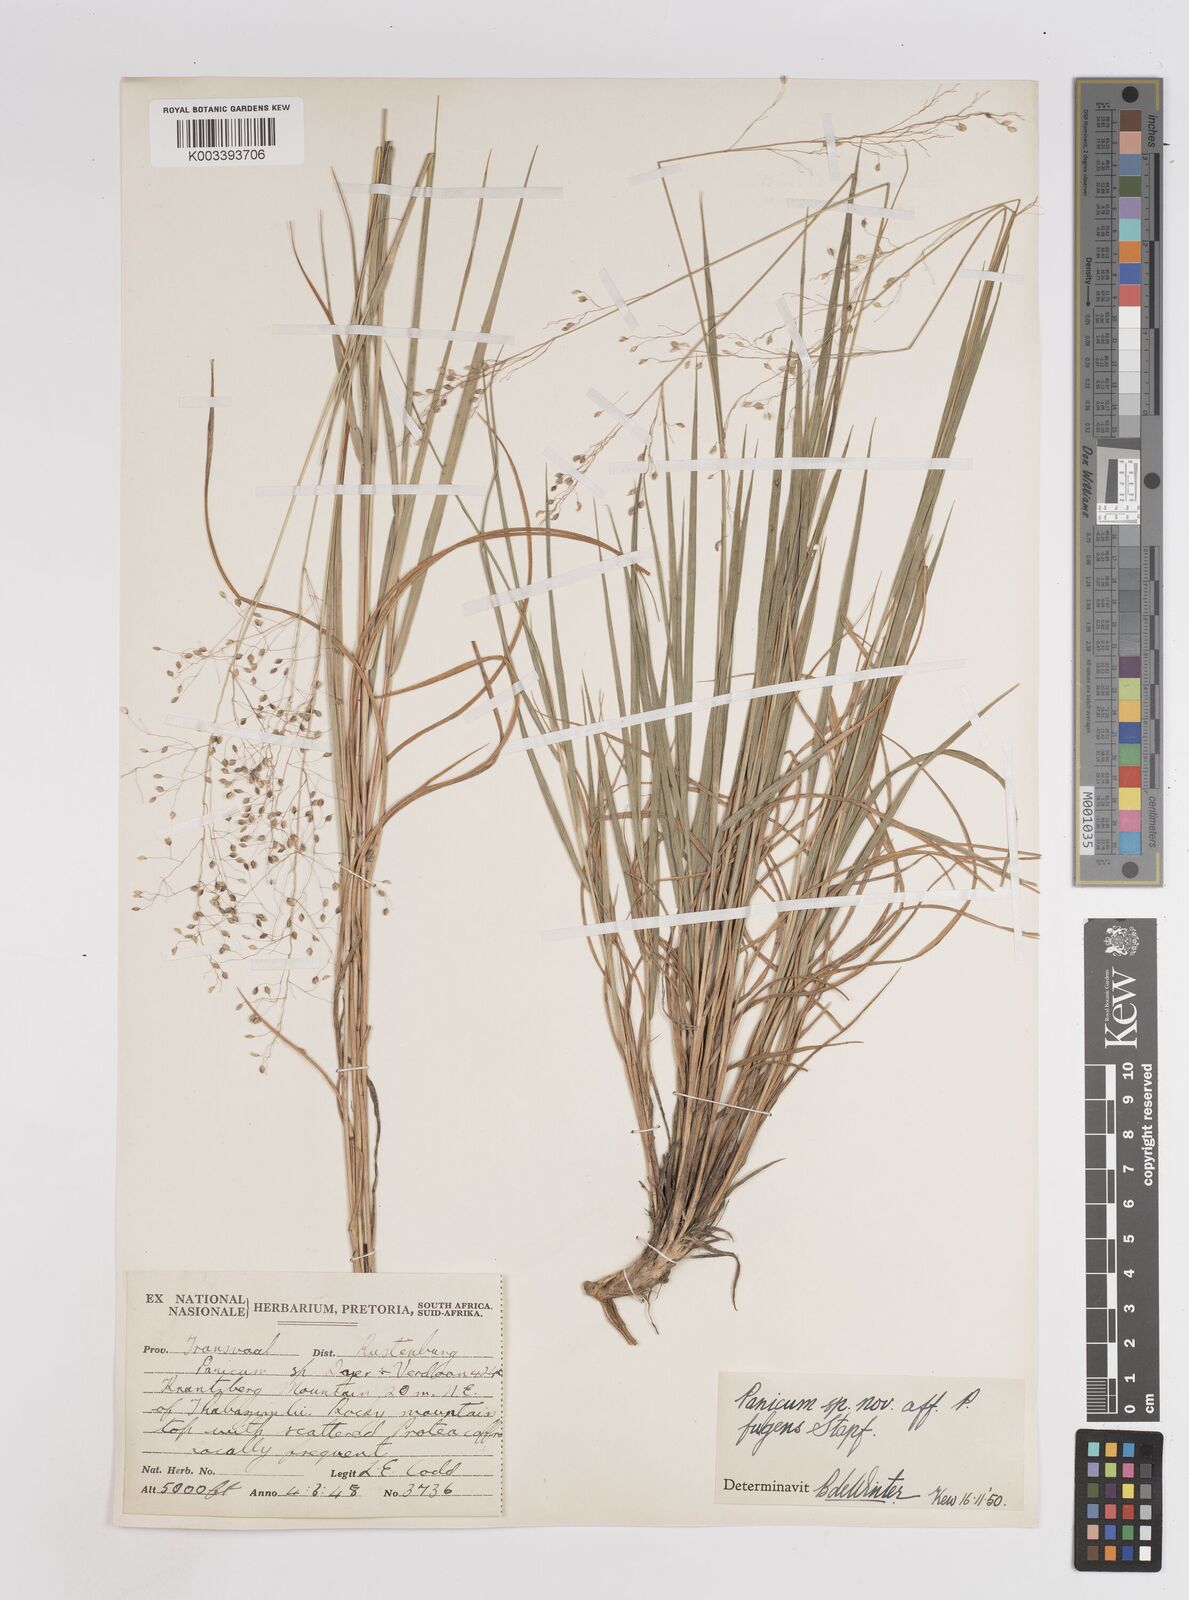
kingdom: Plantae
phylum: Tracheophyta
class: Liliopsida
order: Poales
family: Poaceae
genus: Trichanthecium
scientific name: Trichanthecium nervatum
